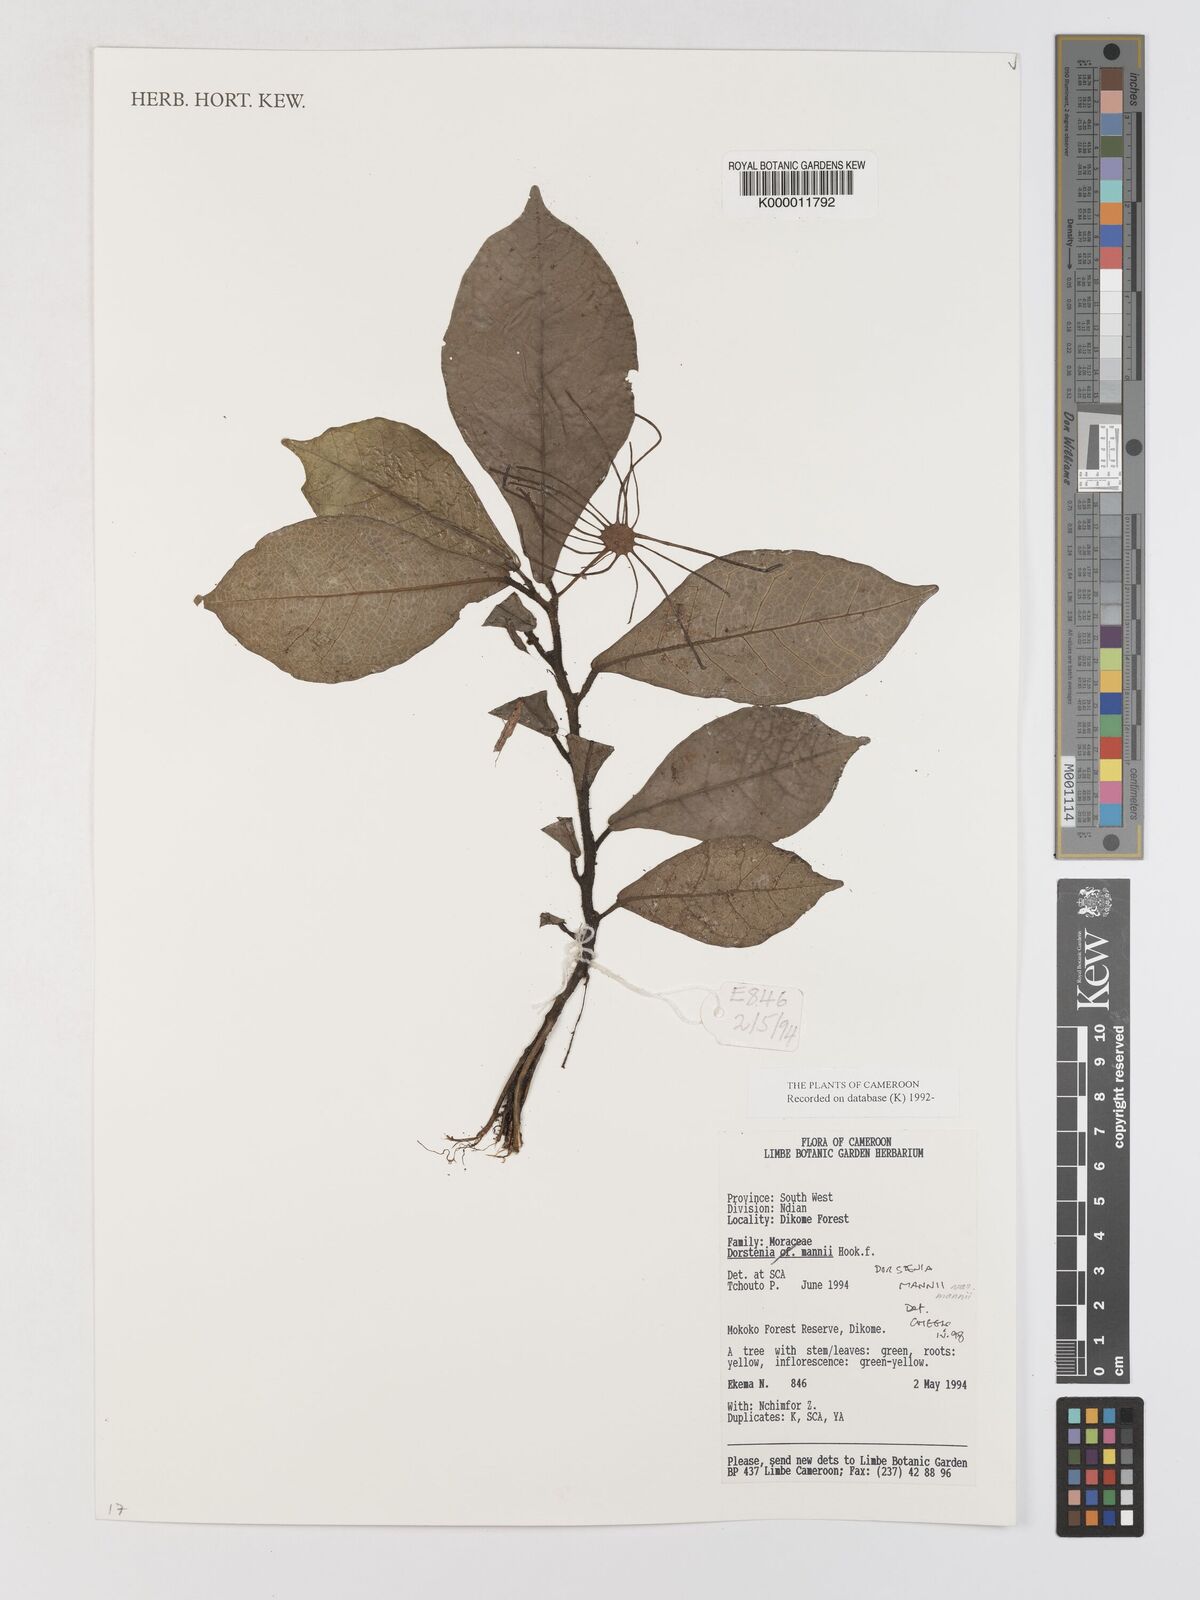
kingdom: Plantae
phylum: Tracheophyta
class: Magnoliopsida
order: Rosales
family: Moraceae
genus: Dorstenia
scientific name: Dorstenia mannii
